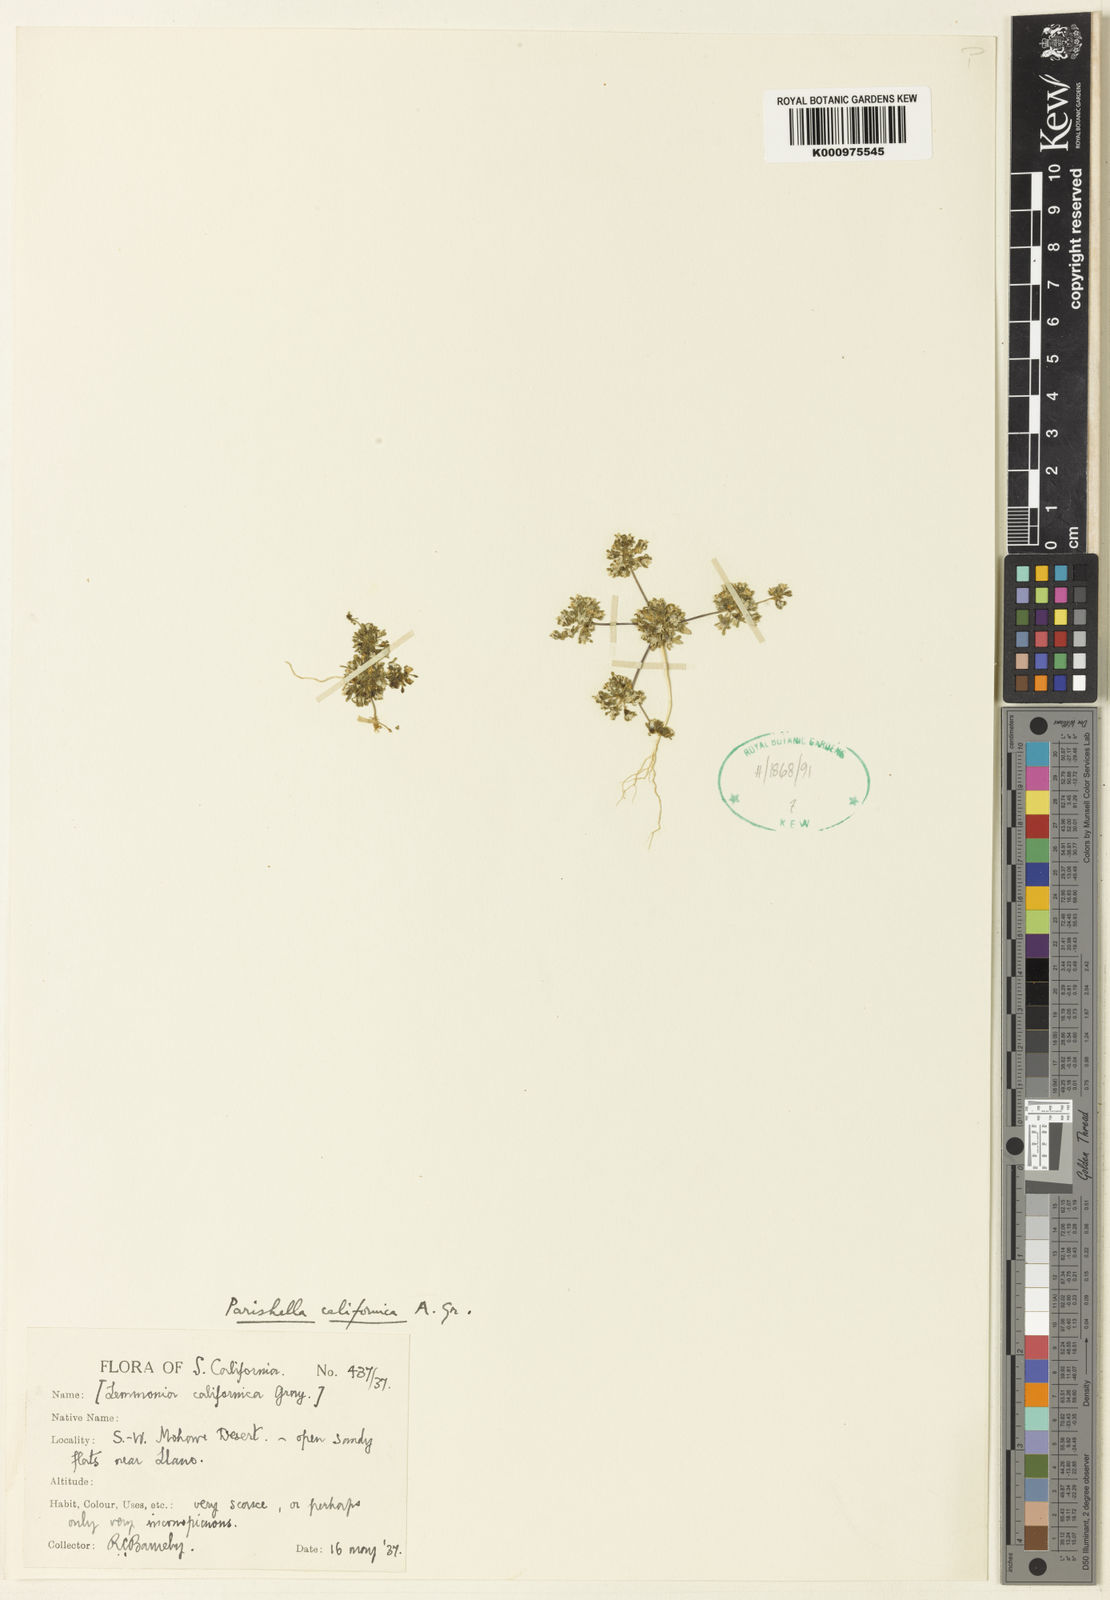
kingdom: Plantae
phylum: Tracheophyta
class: Magnoliopsida
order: Asterales
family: Campanulaceae
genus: Nemacladus
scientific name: Nemacladus californicus
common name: Mojave dwarf threadplant
